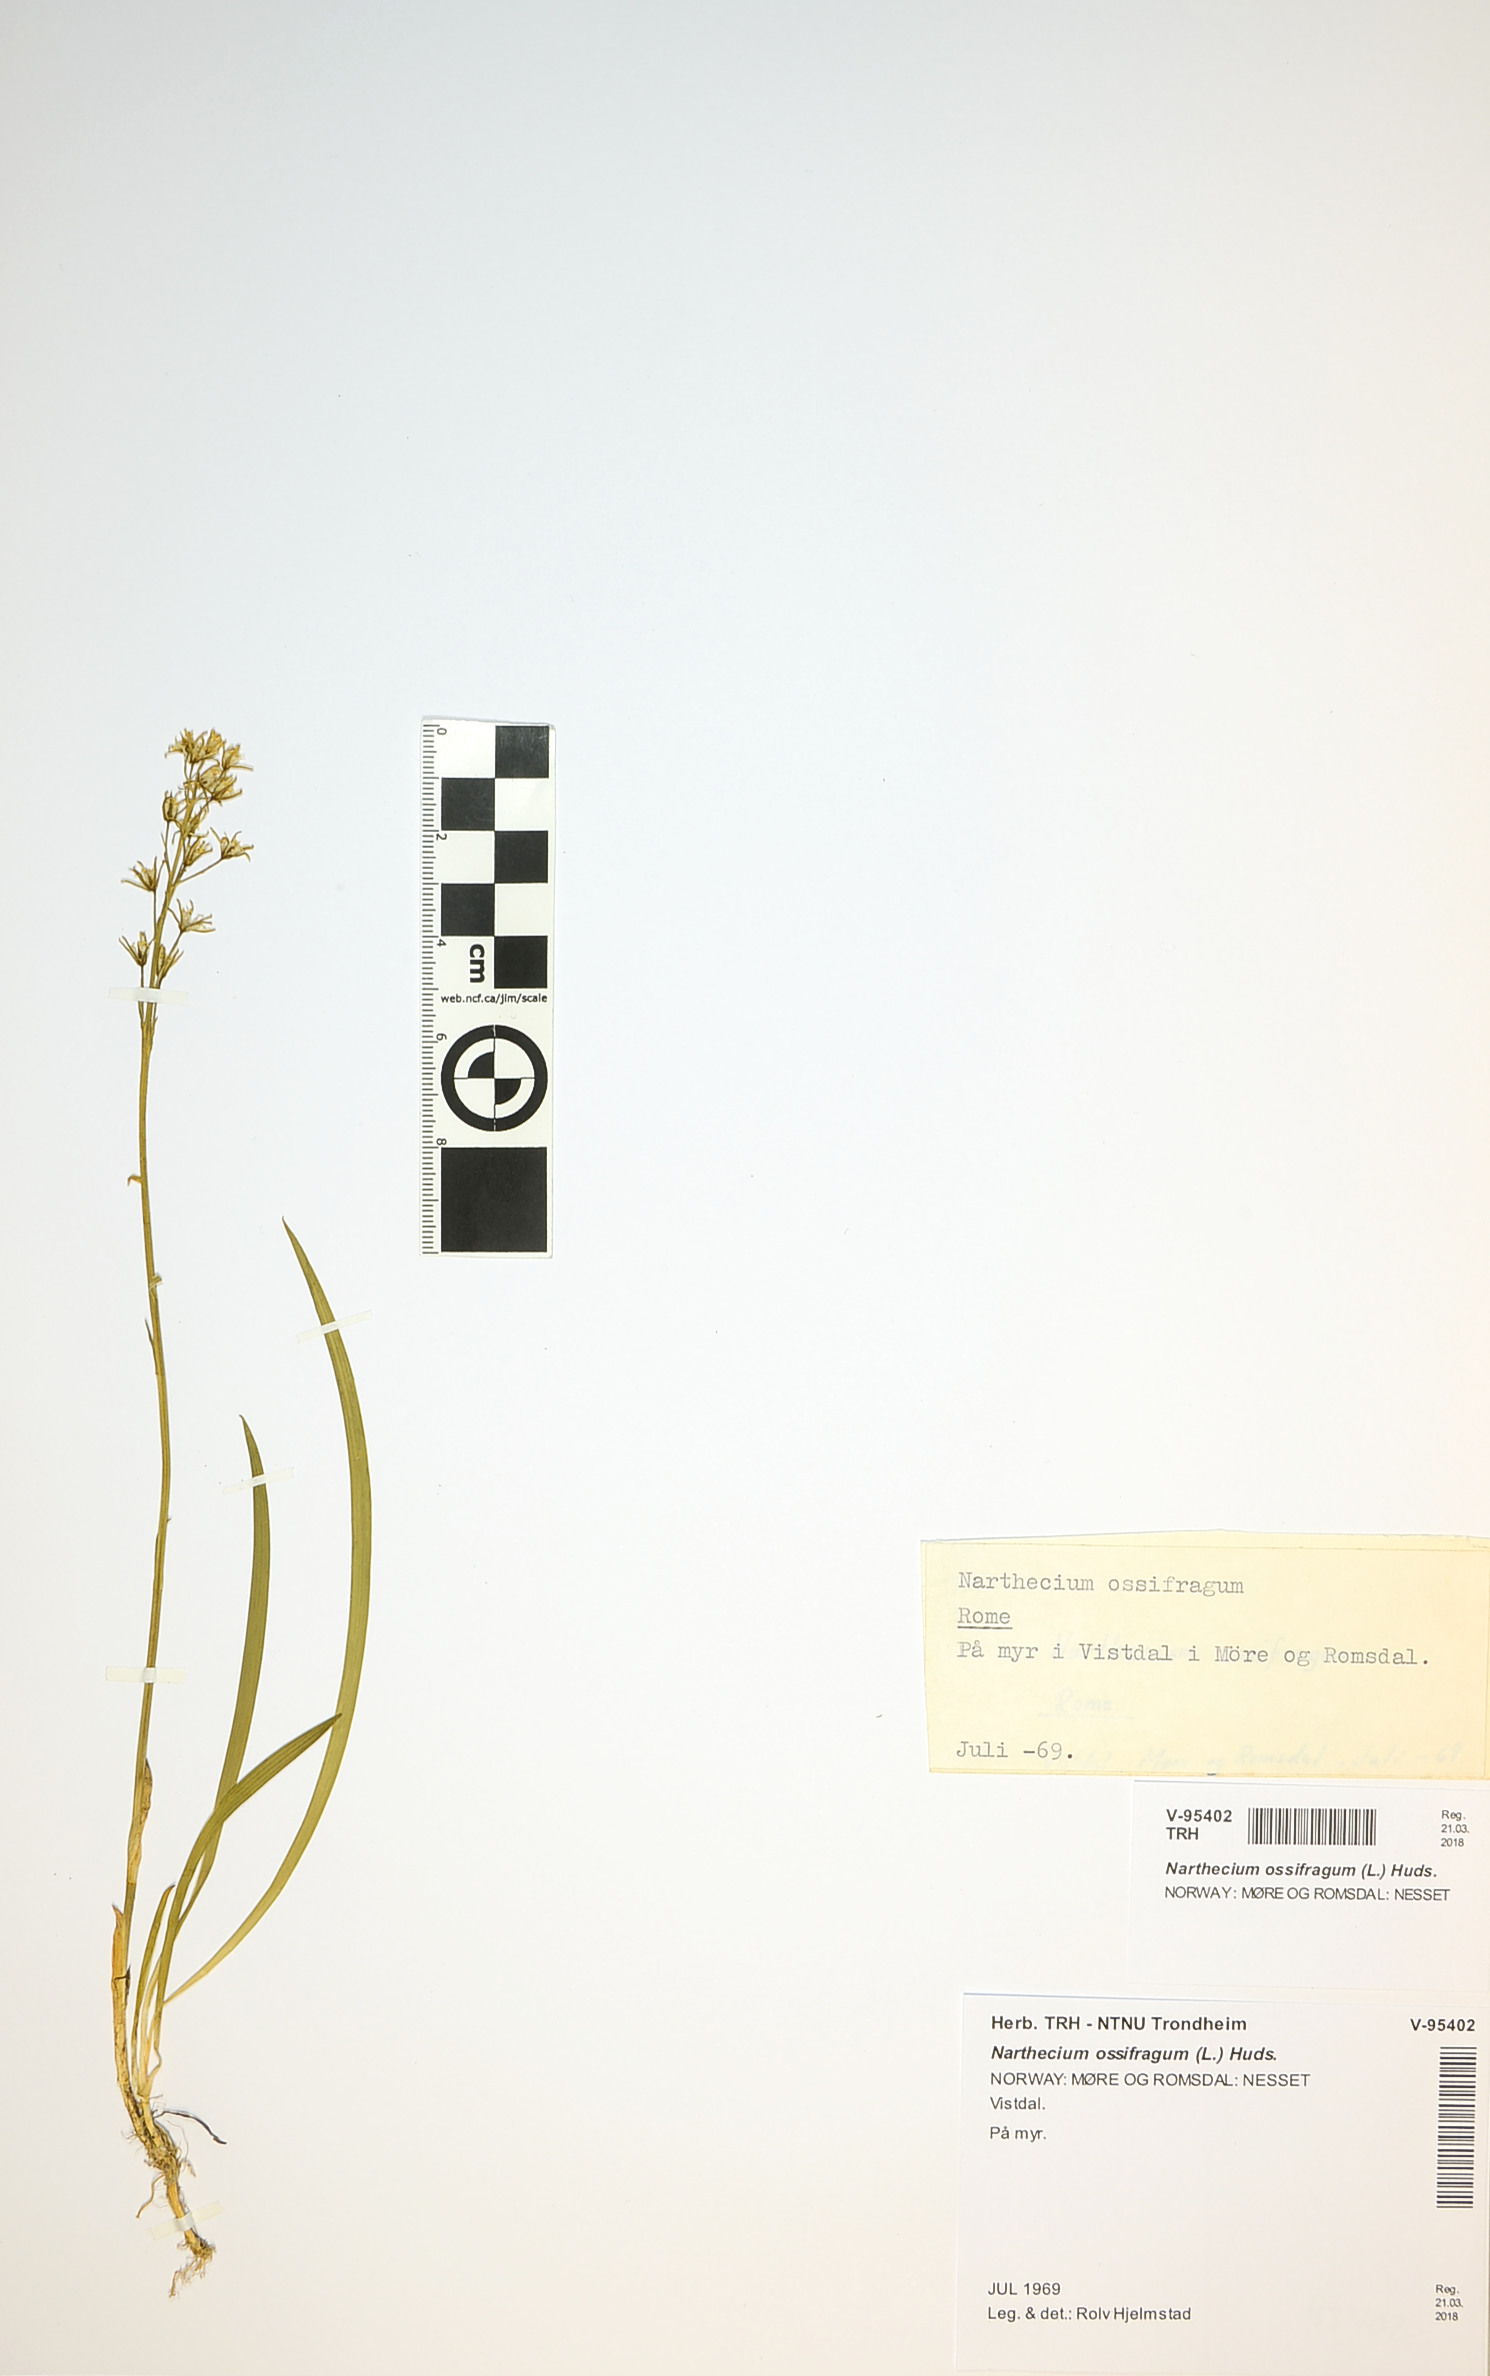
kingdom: Plantae
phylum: Tracheophyta
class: Liliopsida
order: Dioscoreales
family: Nartheciaceae
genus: Narthecium
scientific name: Narthecium ossifragum
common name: Bog asphodel
